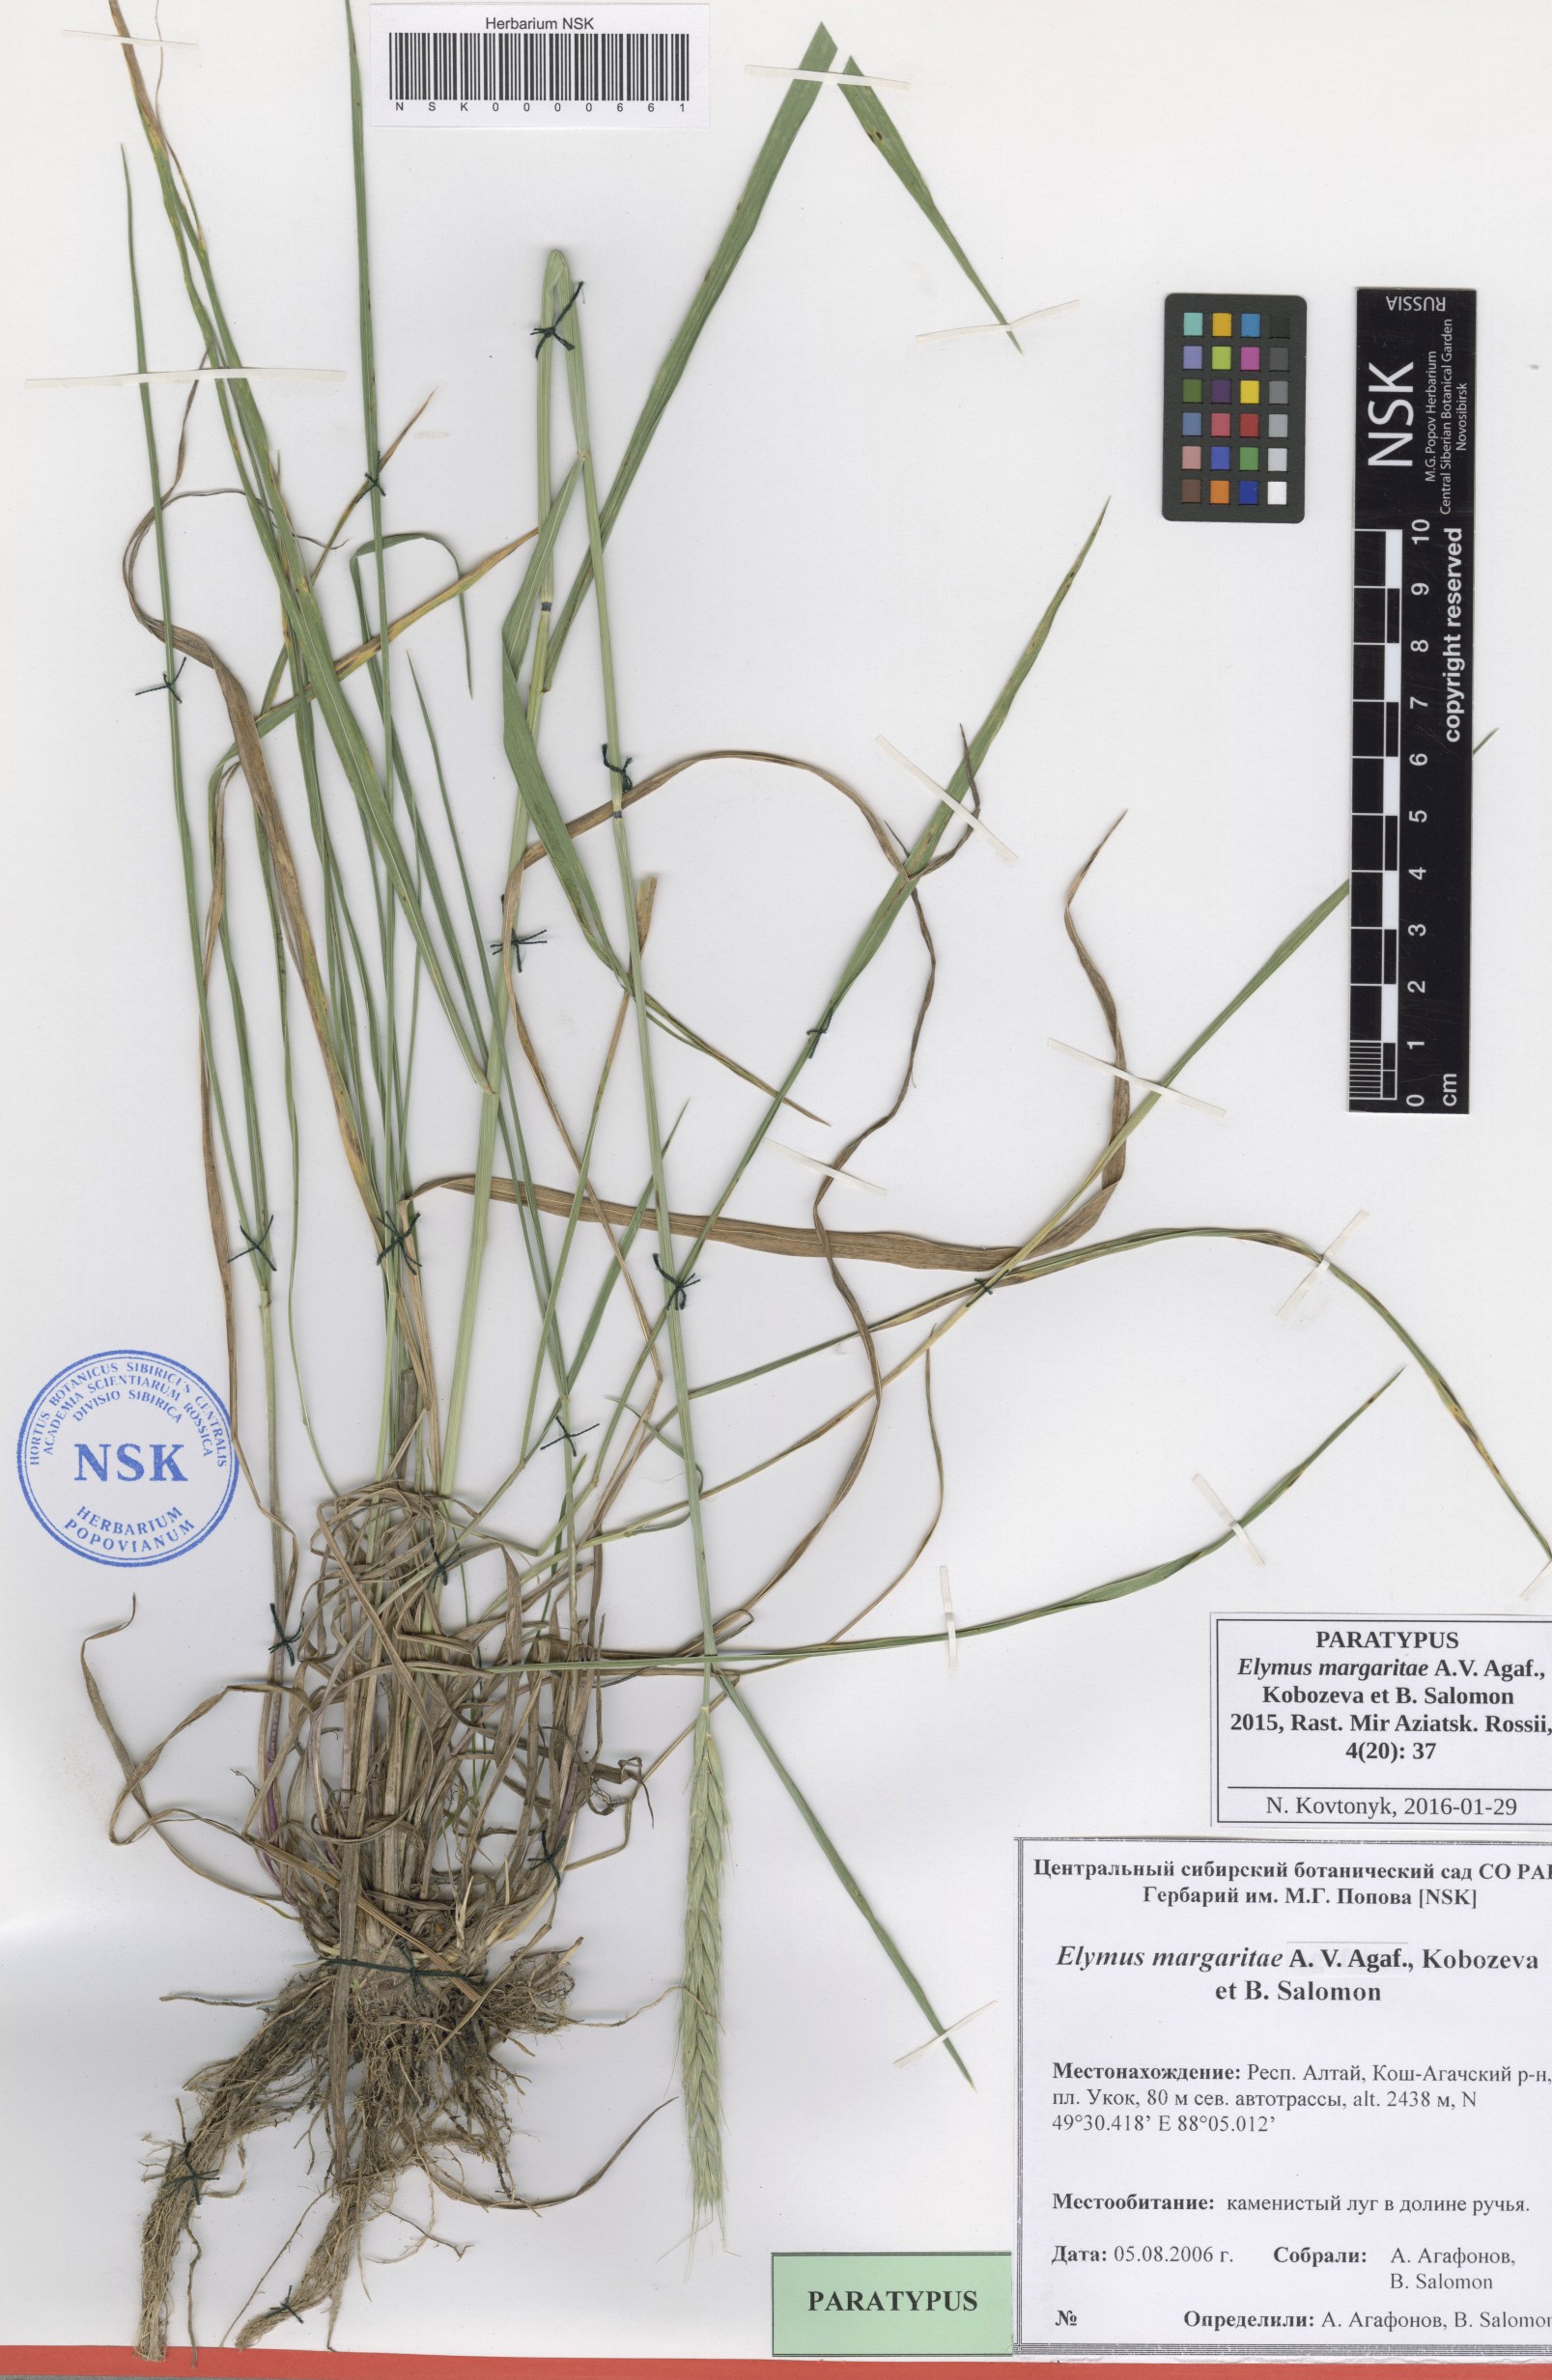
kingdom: Plantae
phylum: Tracheophyta
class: Liliopsida
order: Poales
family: Poaceae
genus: Elymus
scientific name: Elymus margaritae
